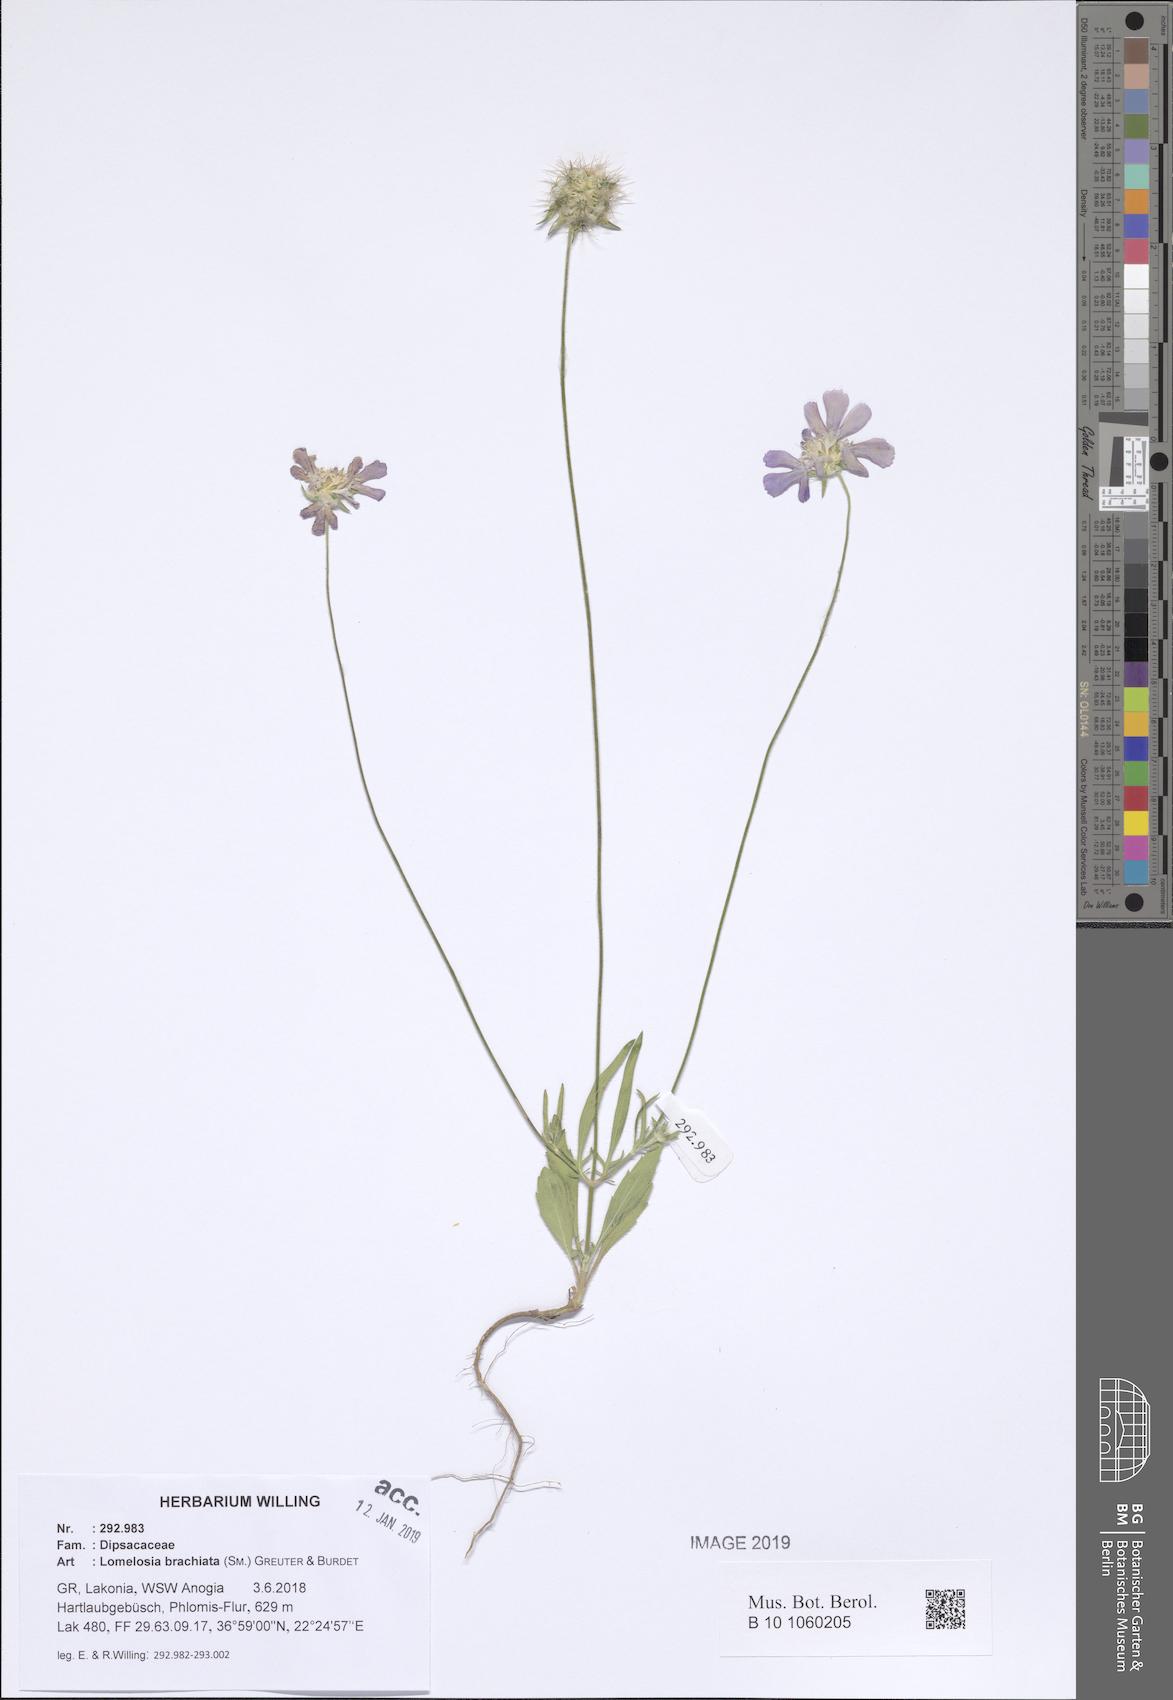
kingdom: Plantae
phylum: Tracheophyta
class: Magnoliopsida
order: Dipsacales
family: Caprifoliaceae
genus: Lomelosia
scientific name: Lomelosia brachiata
